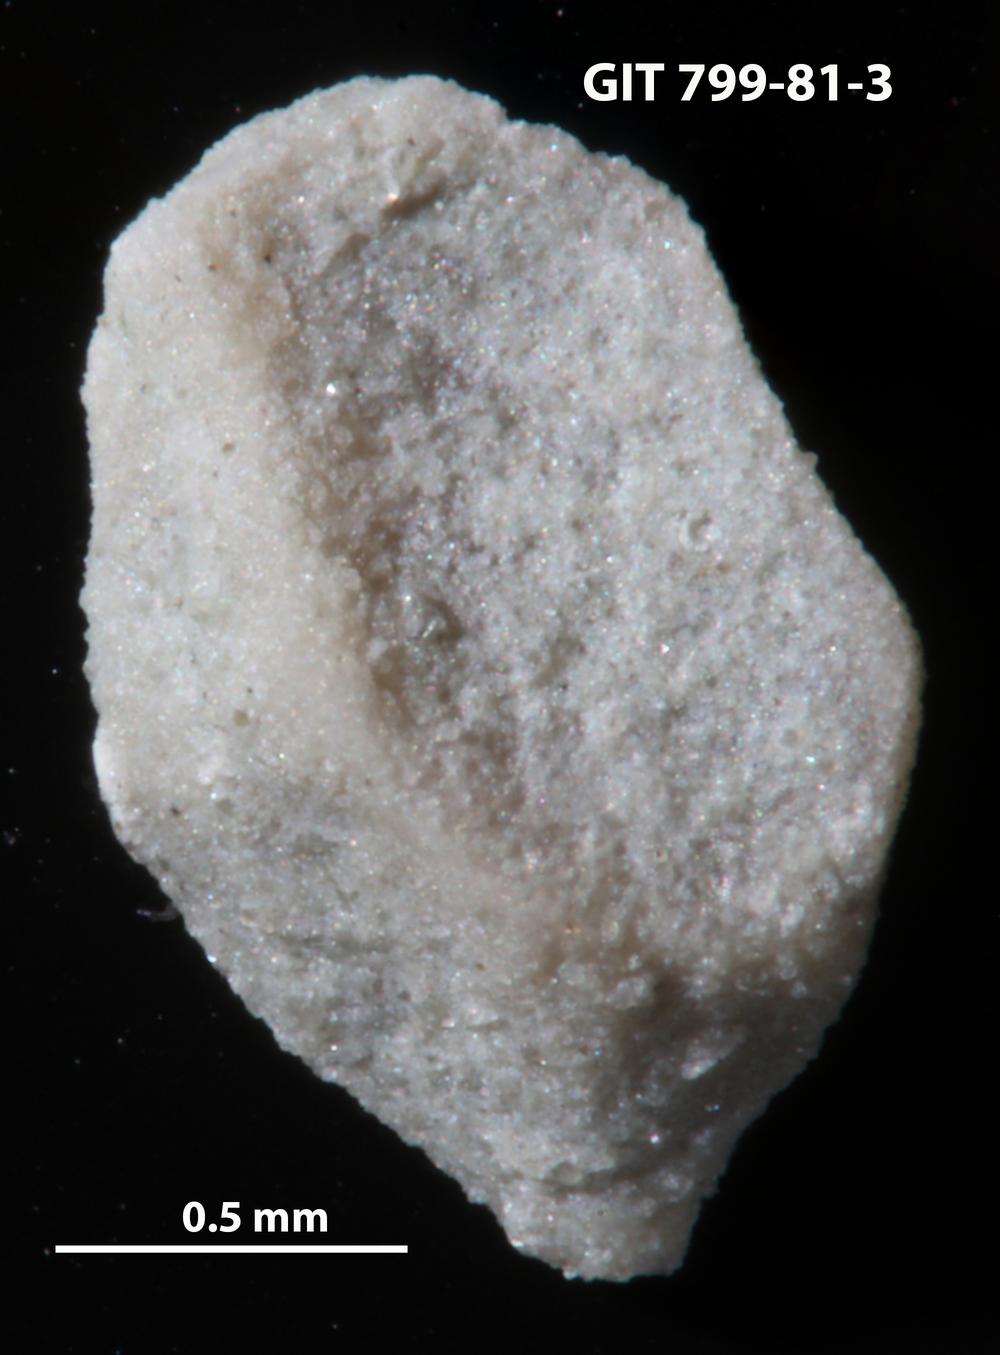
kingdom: Animalia
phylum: Echinodermata
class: Echinoidea
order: Bothriocidaroida
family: Bothriocidaridae
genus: Neobothriocidaris
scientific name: Neobothriocidaris
